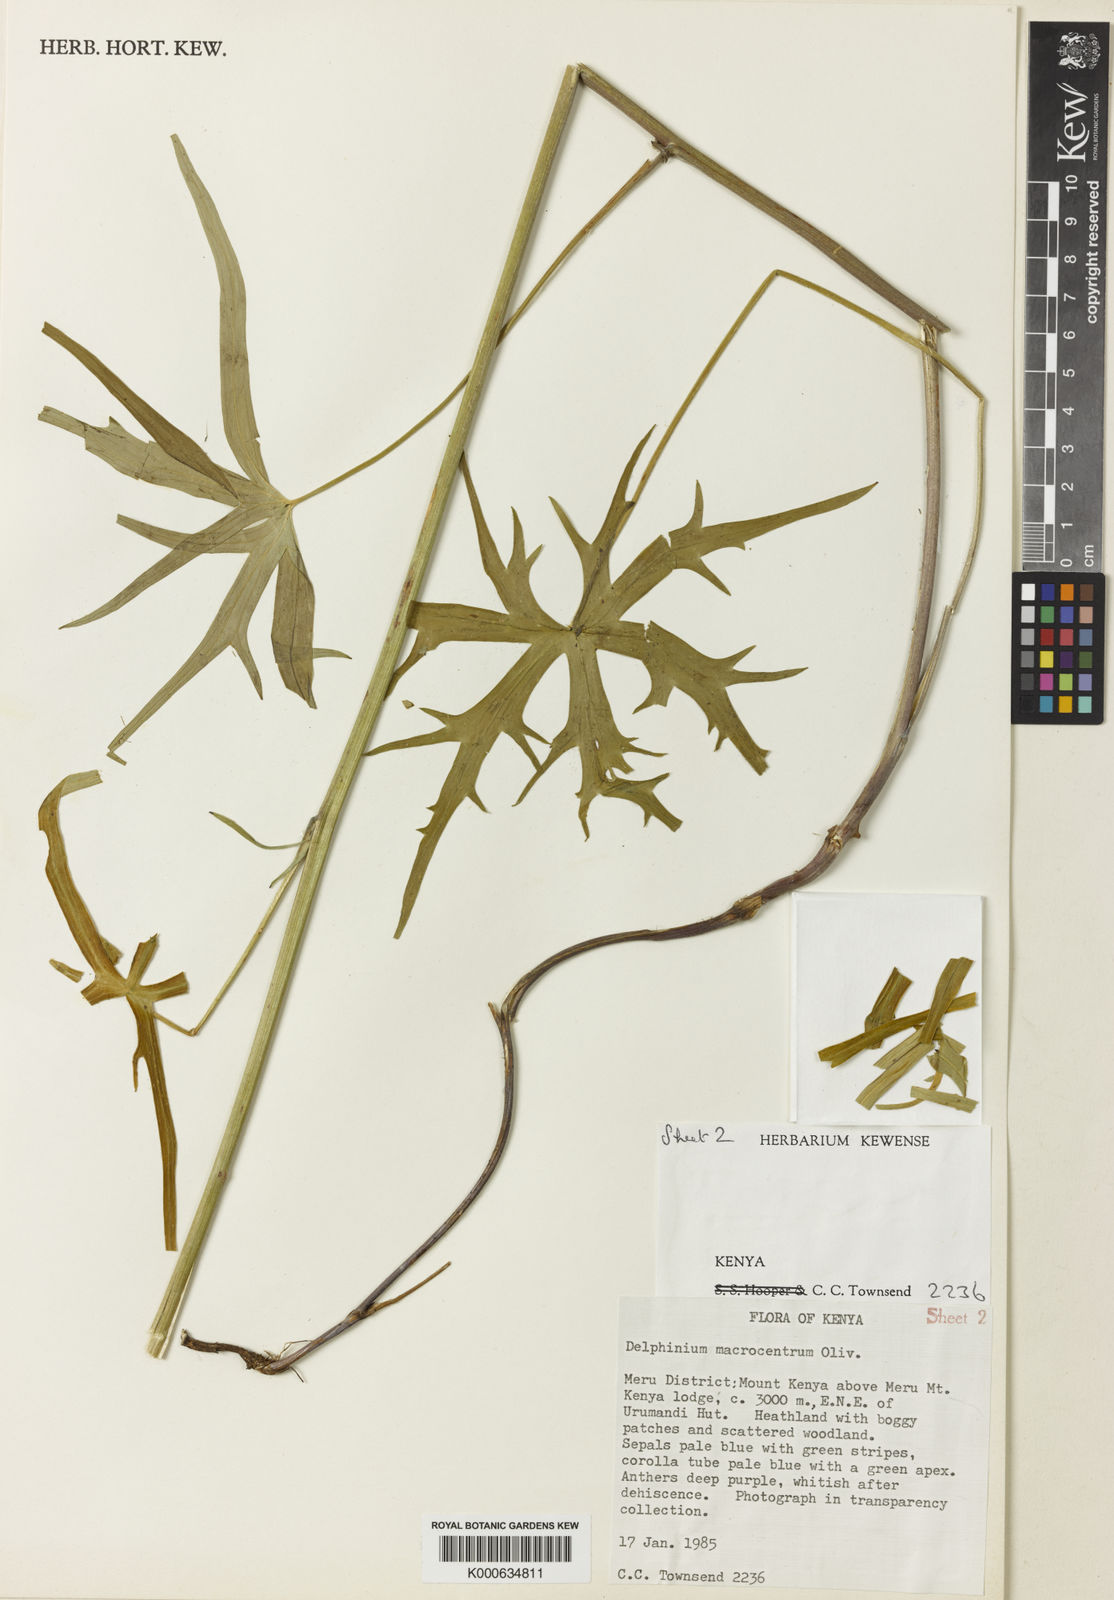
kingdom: Plantae
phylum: Tracheophyta
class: Magnoliopsida
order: Ranunculales
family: Ranunculaceae
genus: Delphinium
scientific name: Delphinium macrocentrum
